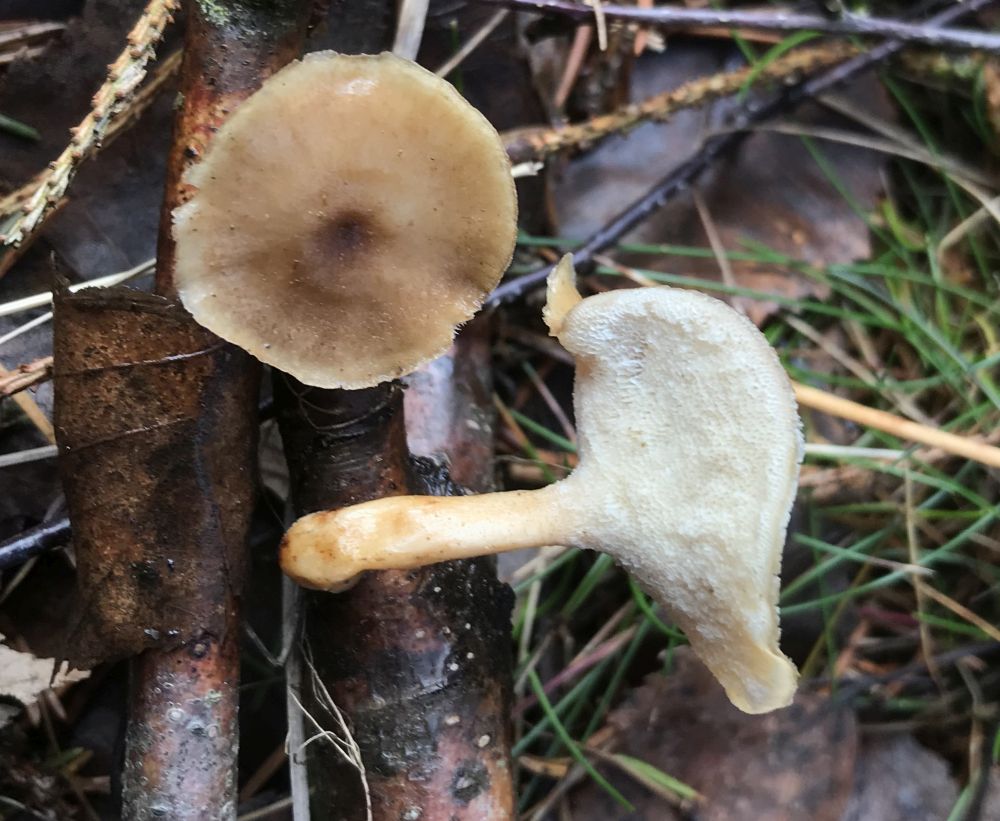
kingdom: Fungi
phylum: Basidiomycota
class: Agaricomycetes
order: Polyporales
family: Polyporaceae
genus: Lentinus
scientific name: Lentinus brumalis
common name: vinter-stilkporesvamp
